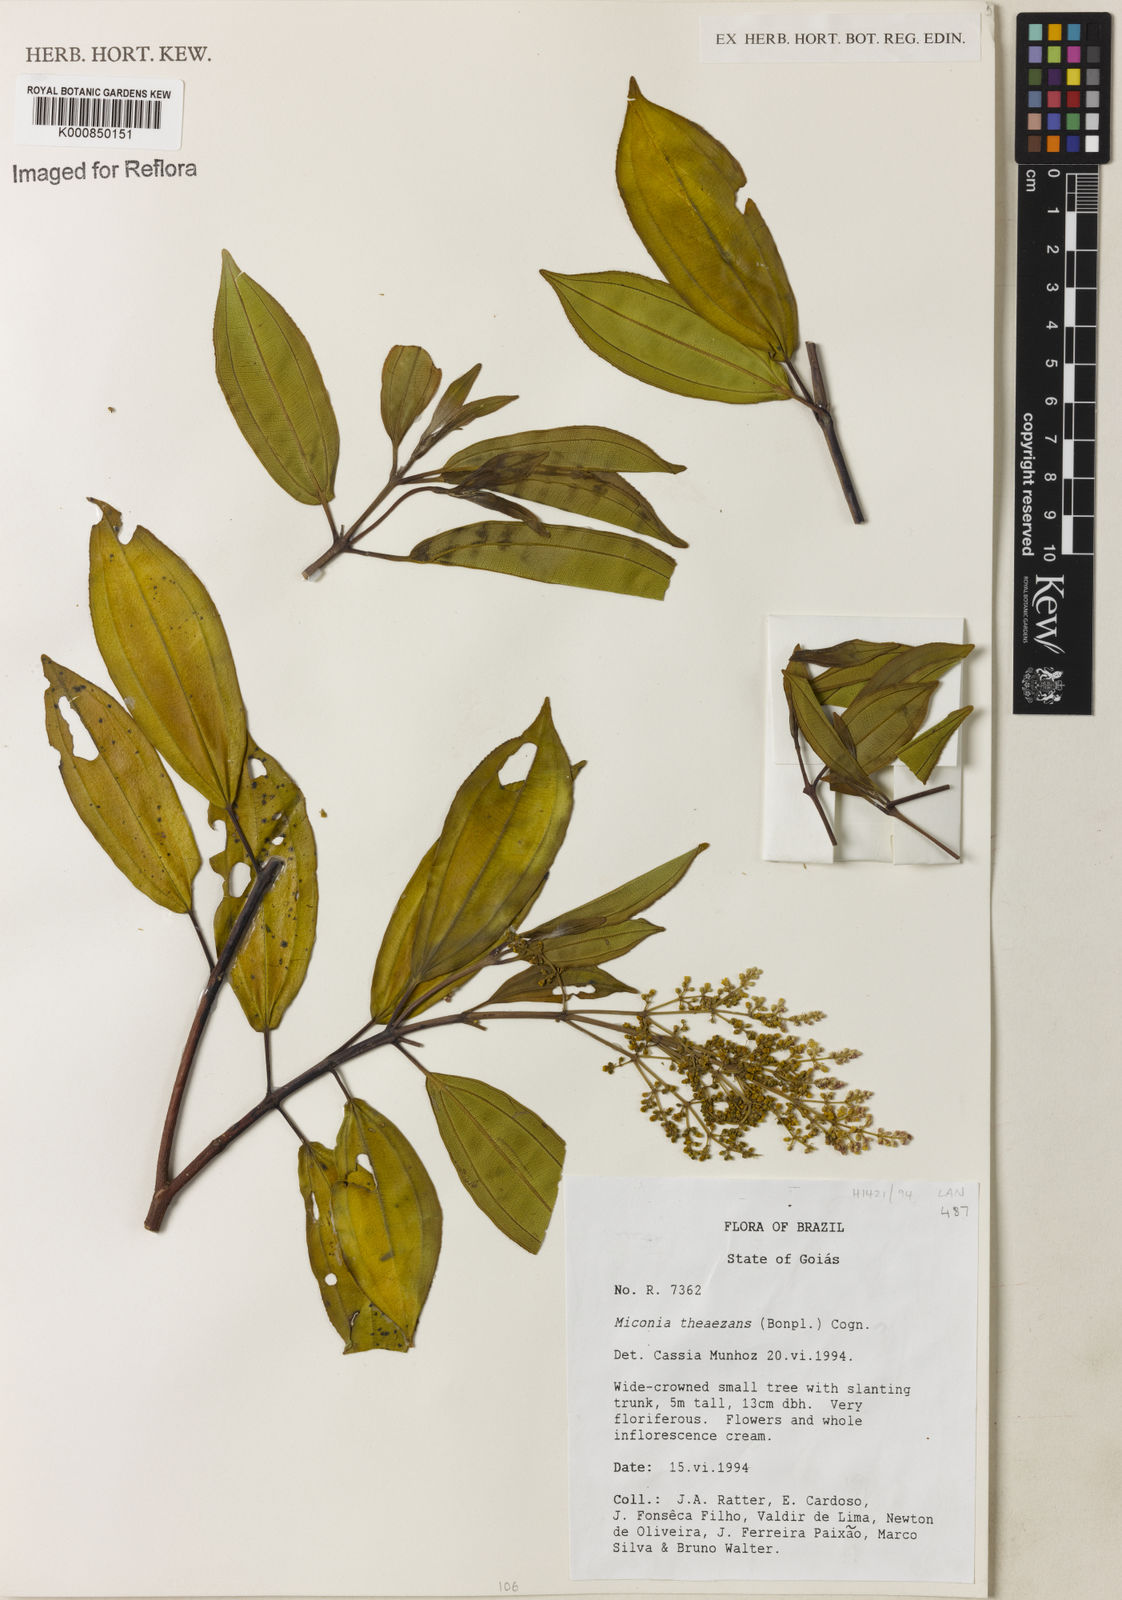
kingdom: Plantae
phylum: Tracheophyta
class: Magnoliopsida
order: Myrtales
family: Melastomataceae
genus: Miconia
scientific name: Miconia
